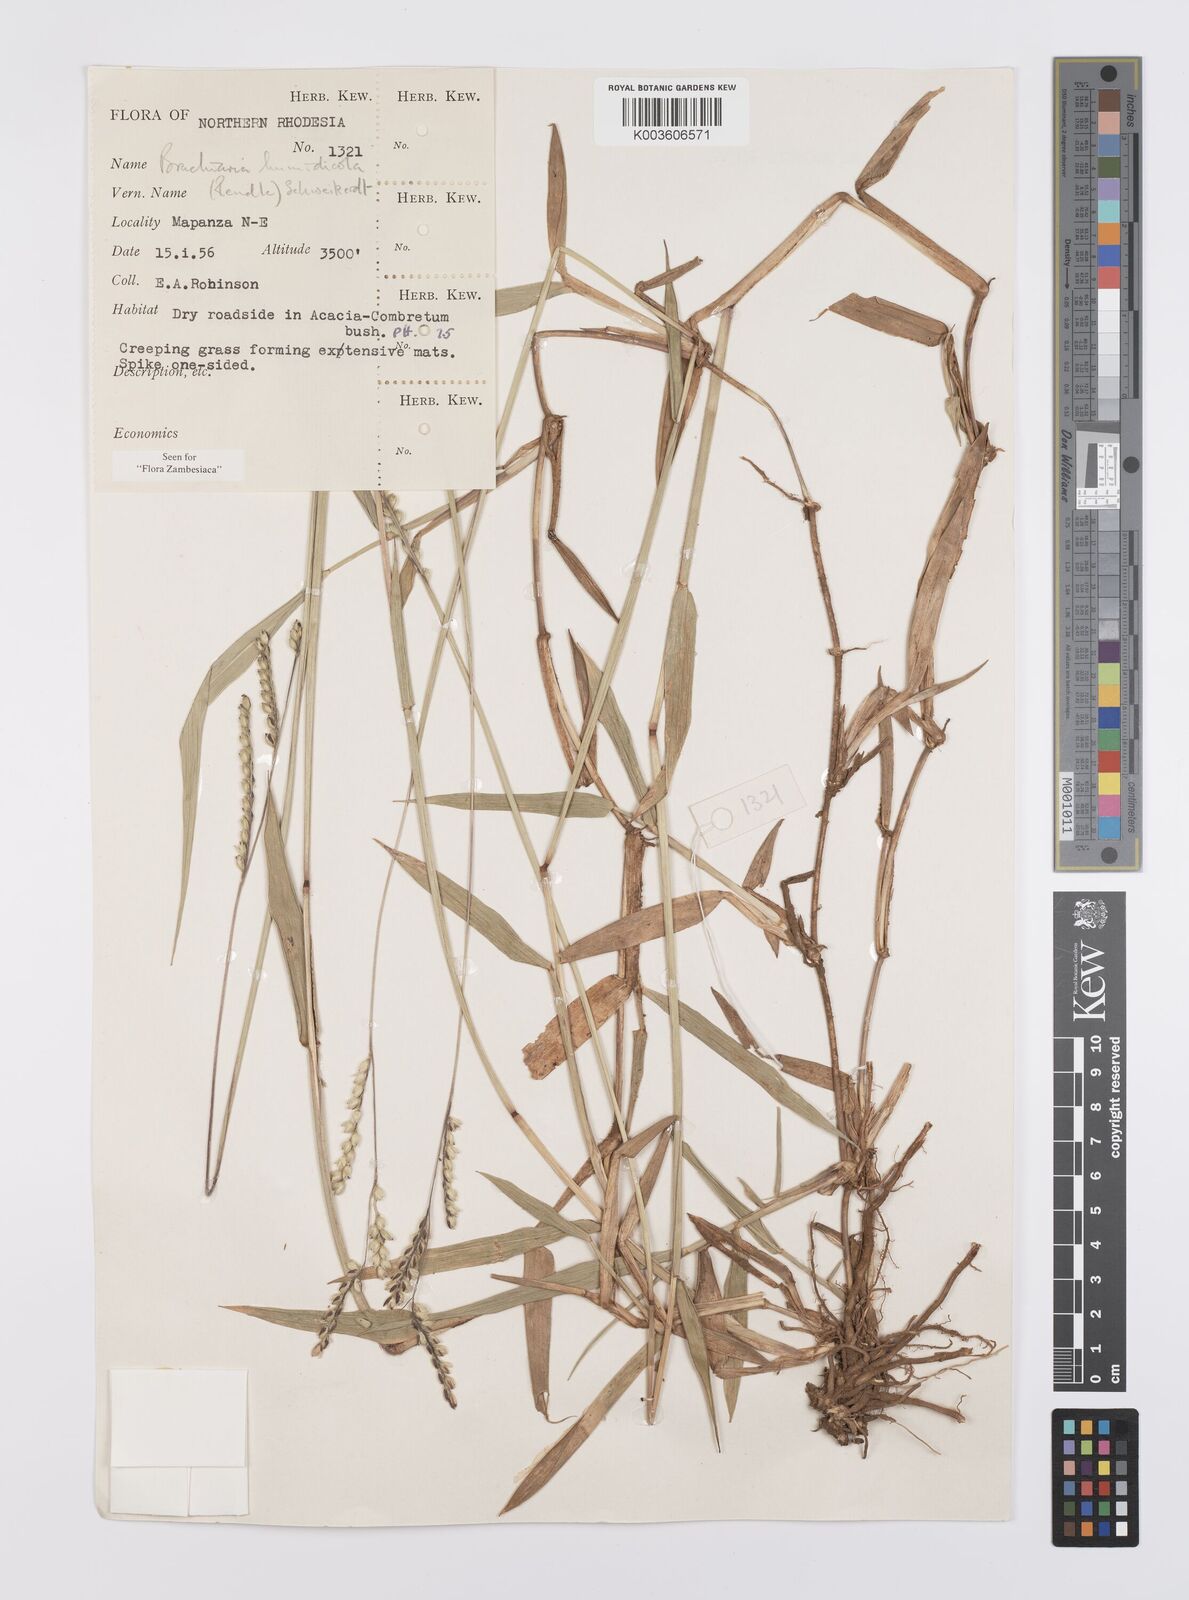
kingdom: Plantae
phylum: Tracheophyta
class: Liliopsida
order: Poales
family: Poaceae
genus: Urochloa
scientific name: Urochloa dictyoneura
